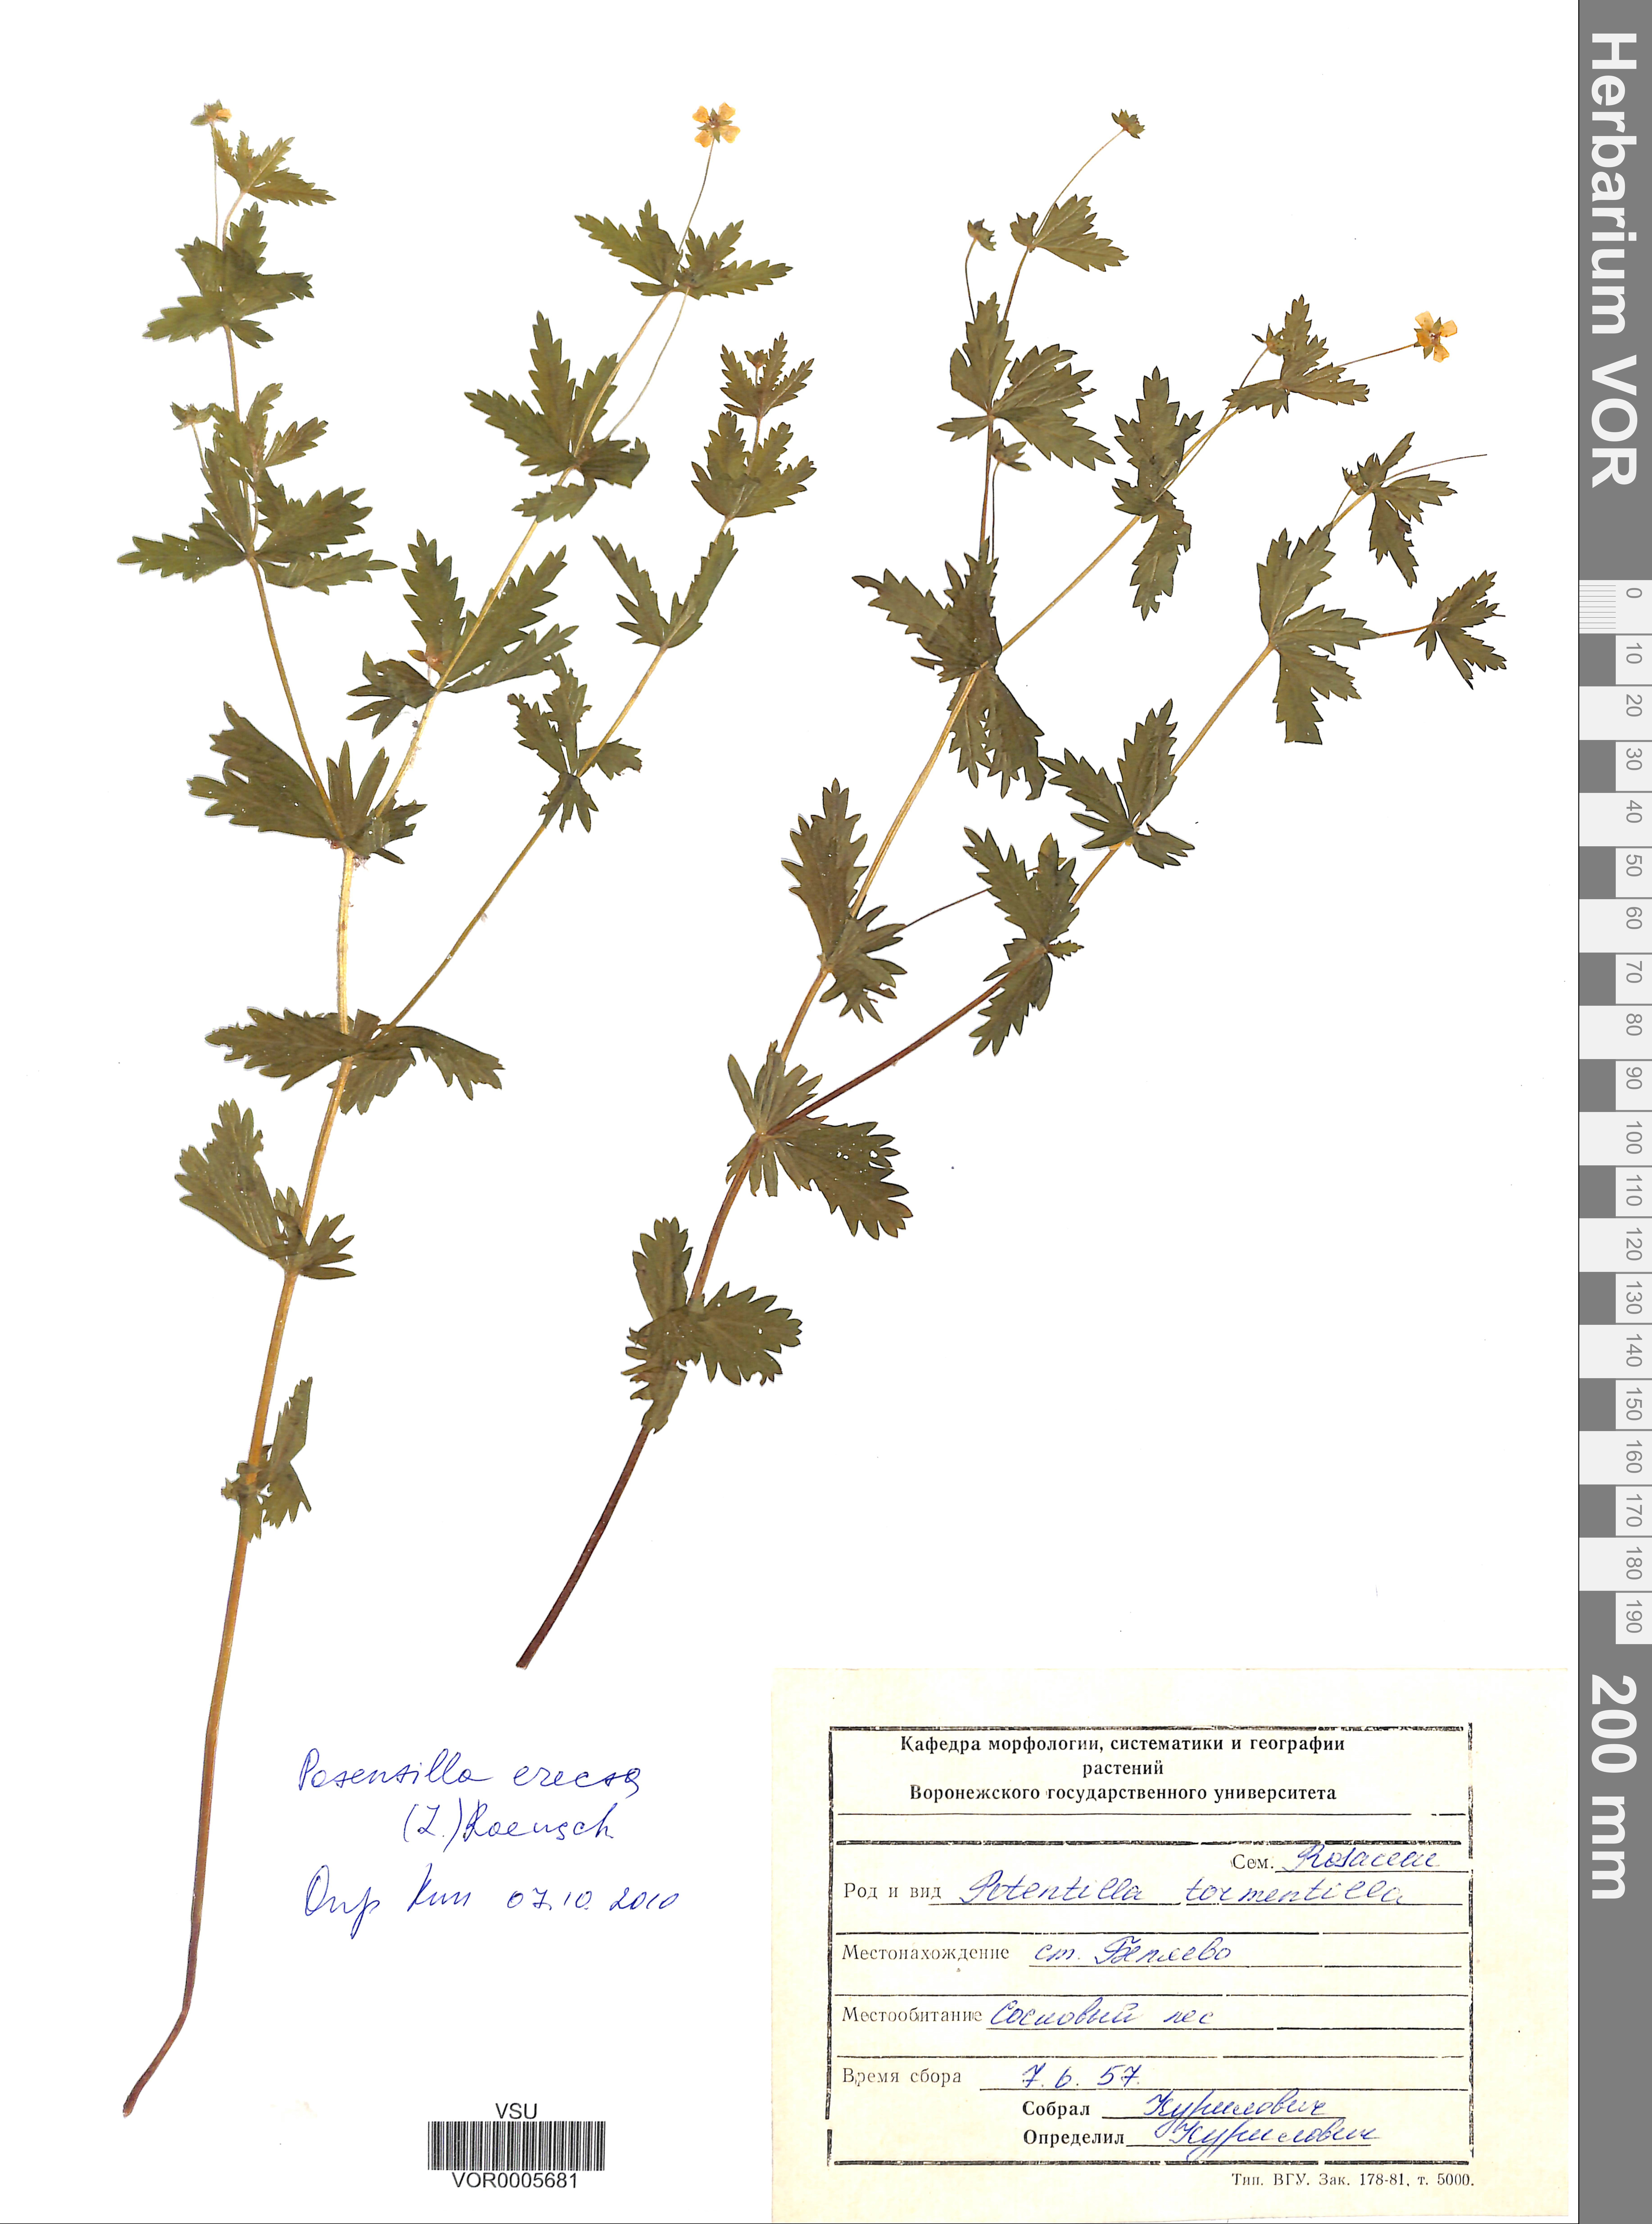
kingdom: Plantae
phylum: Tracheophyta
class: Magnoliopsida
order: Rosales
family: Rosaceae
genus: Potentilla
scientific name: Potentilla erecta
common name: Tormentil
